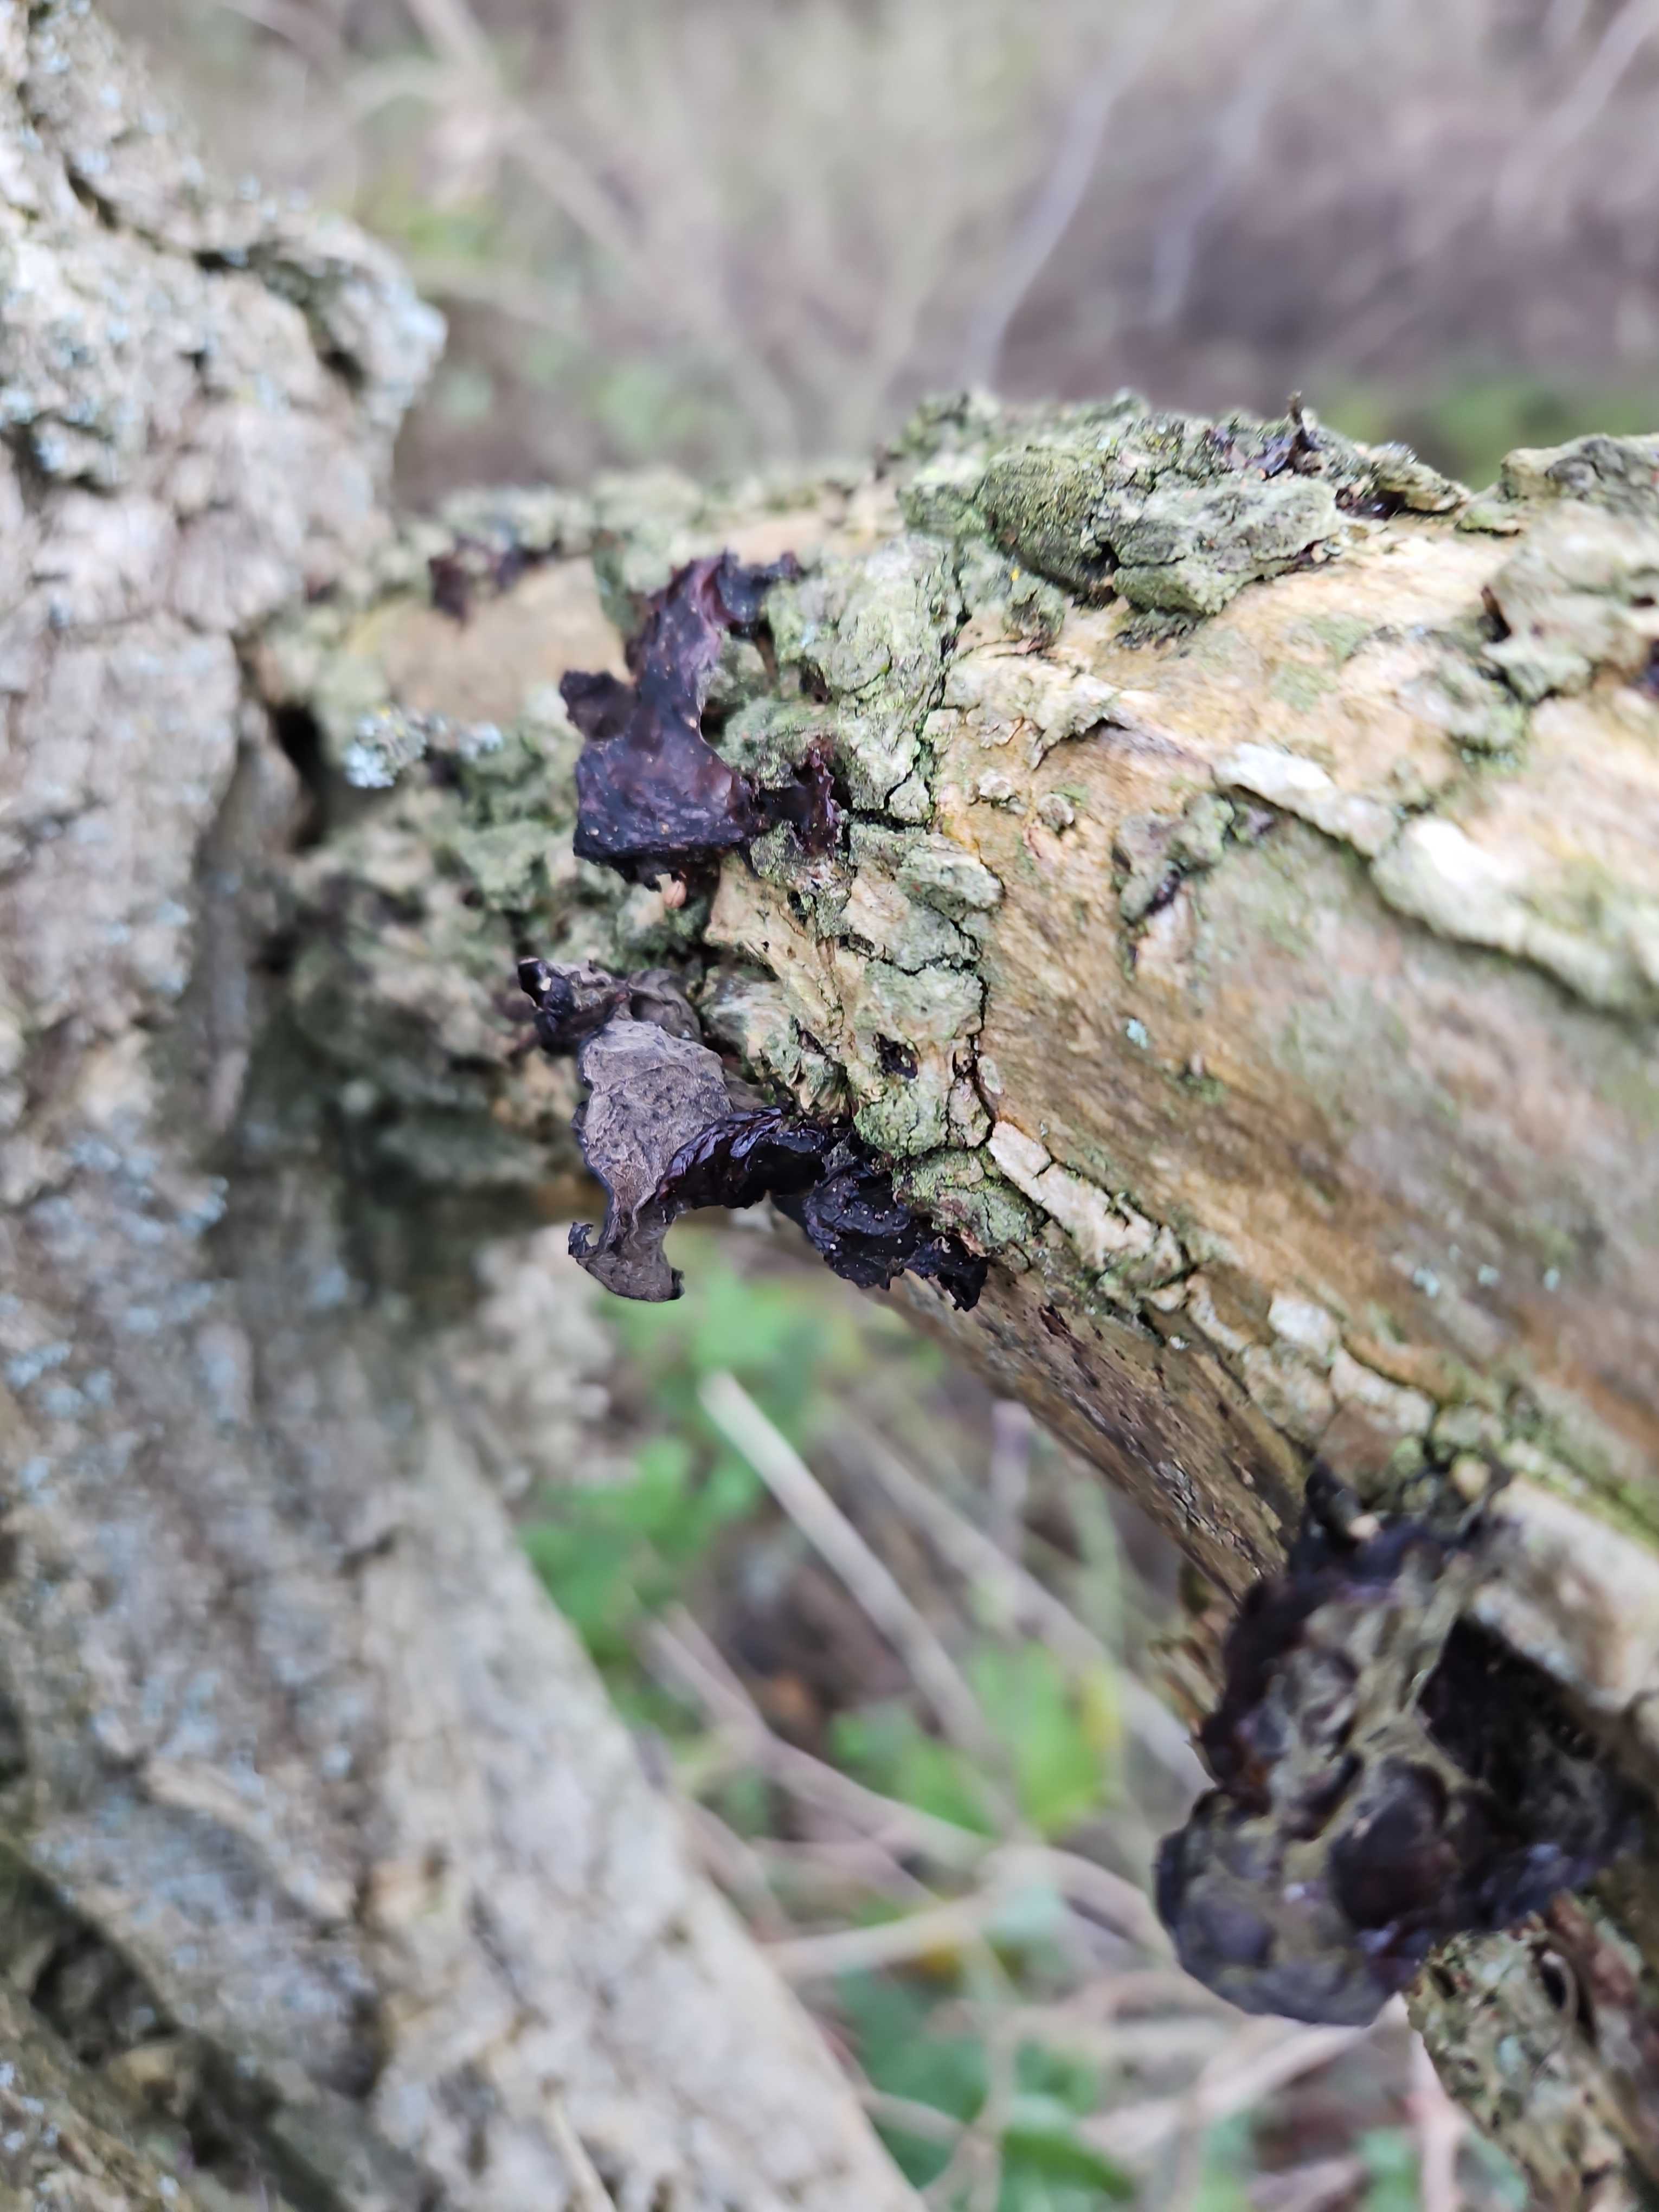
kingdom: Fungi
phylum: Basidiomycota
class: Agaricomycetes
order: Auriculariales
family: Auriculariaceae
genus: Auricularia
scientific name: Auricularia auricula-judae
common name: almindelig judasøre
